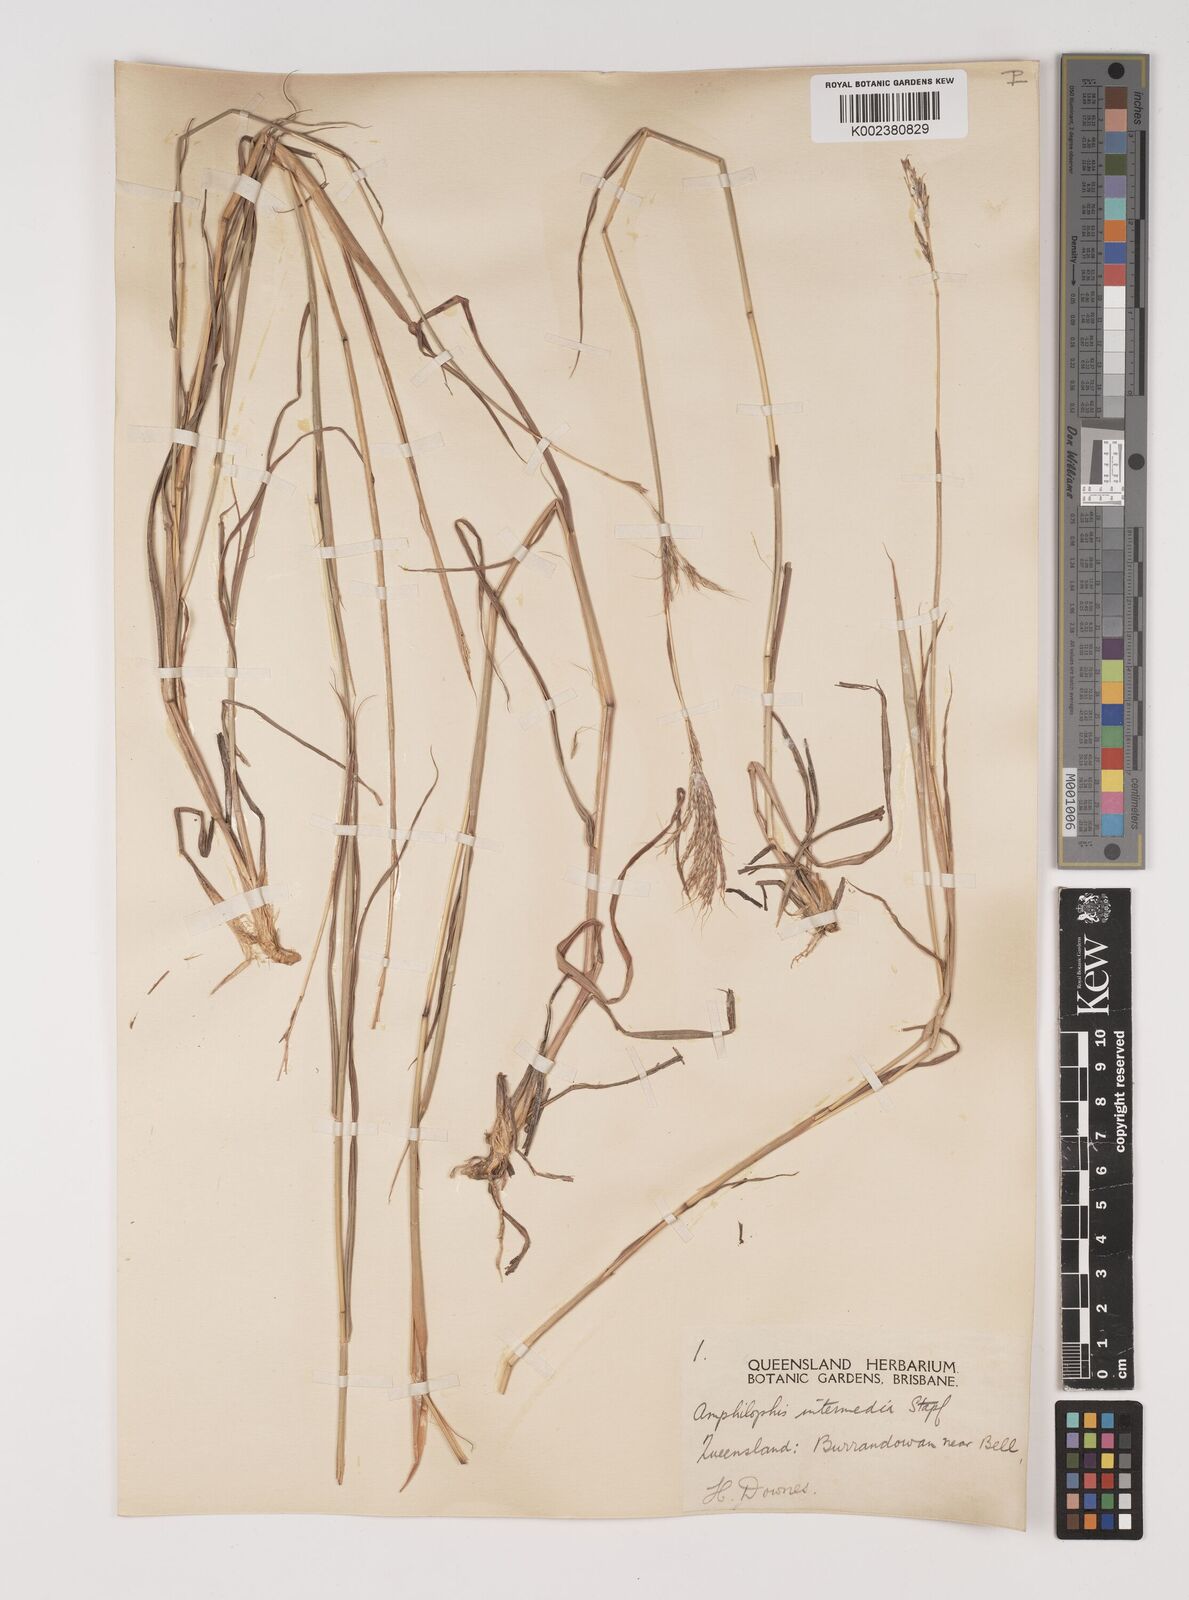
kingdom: Plantae
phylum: Tracheophyta
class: Liliopsida
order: Poales
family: Poaceae
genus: Bothriochloa
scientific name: Bothriochloa bladhii
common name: Caucasian bluestem
